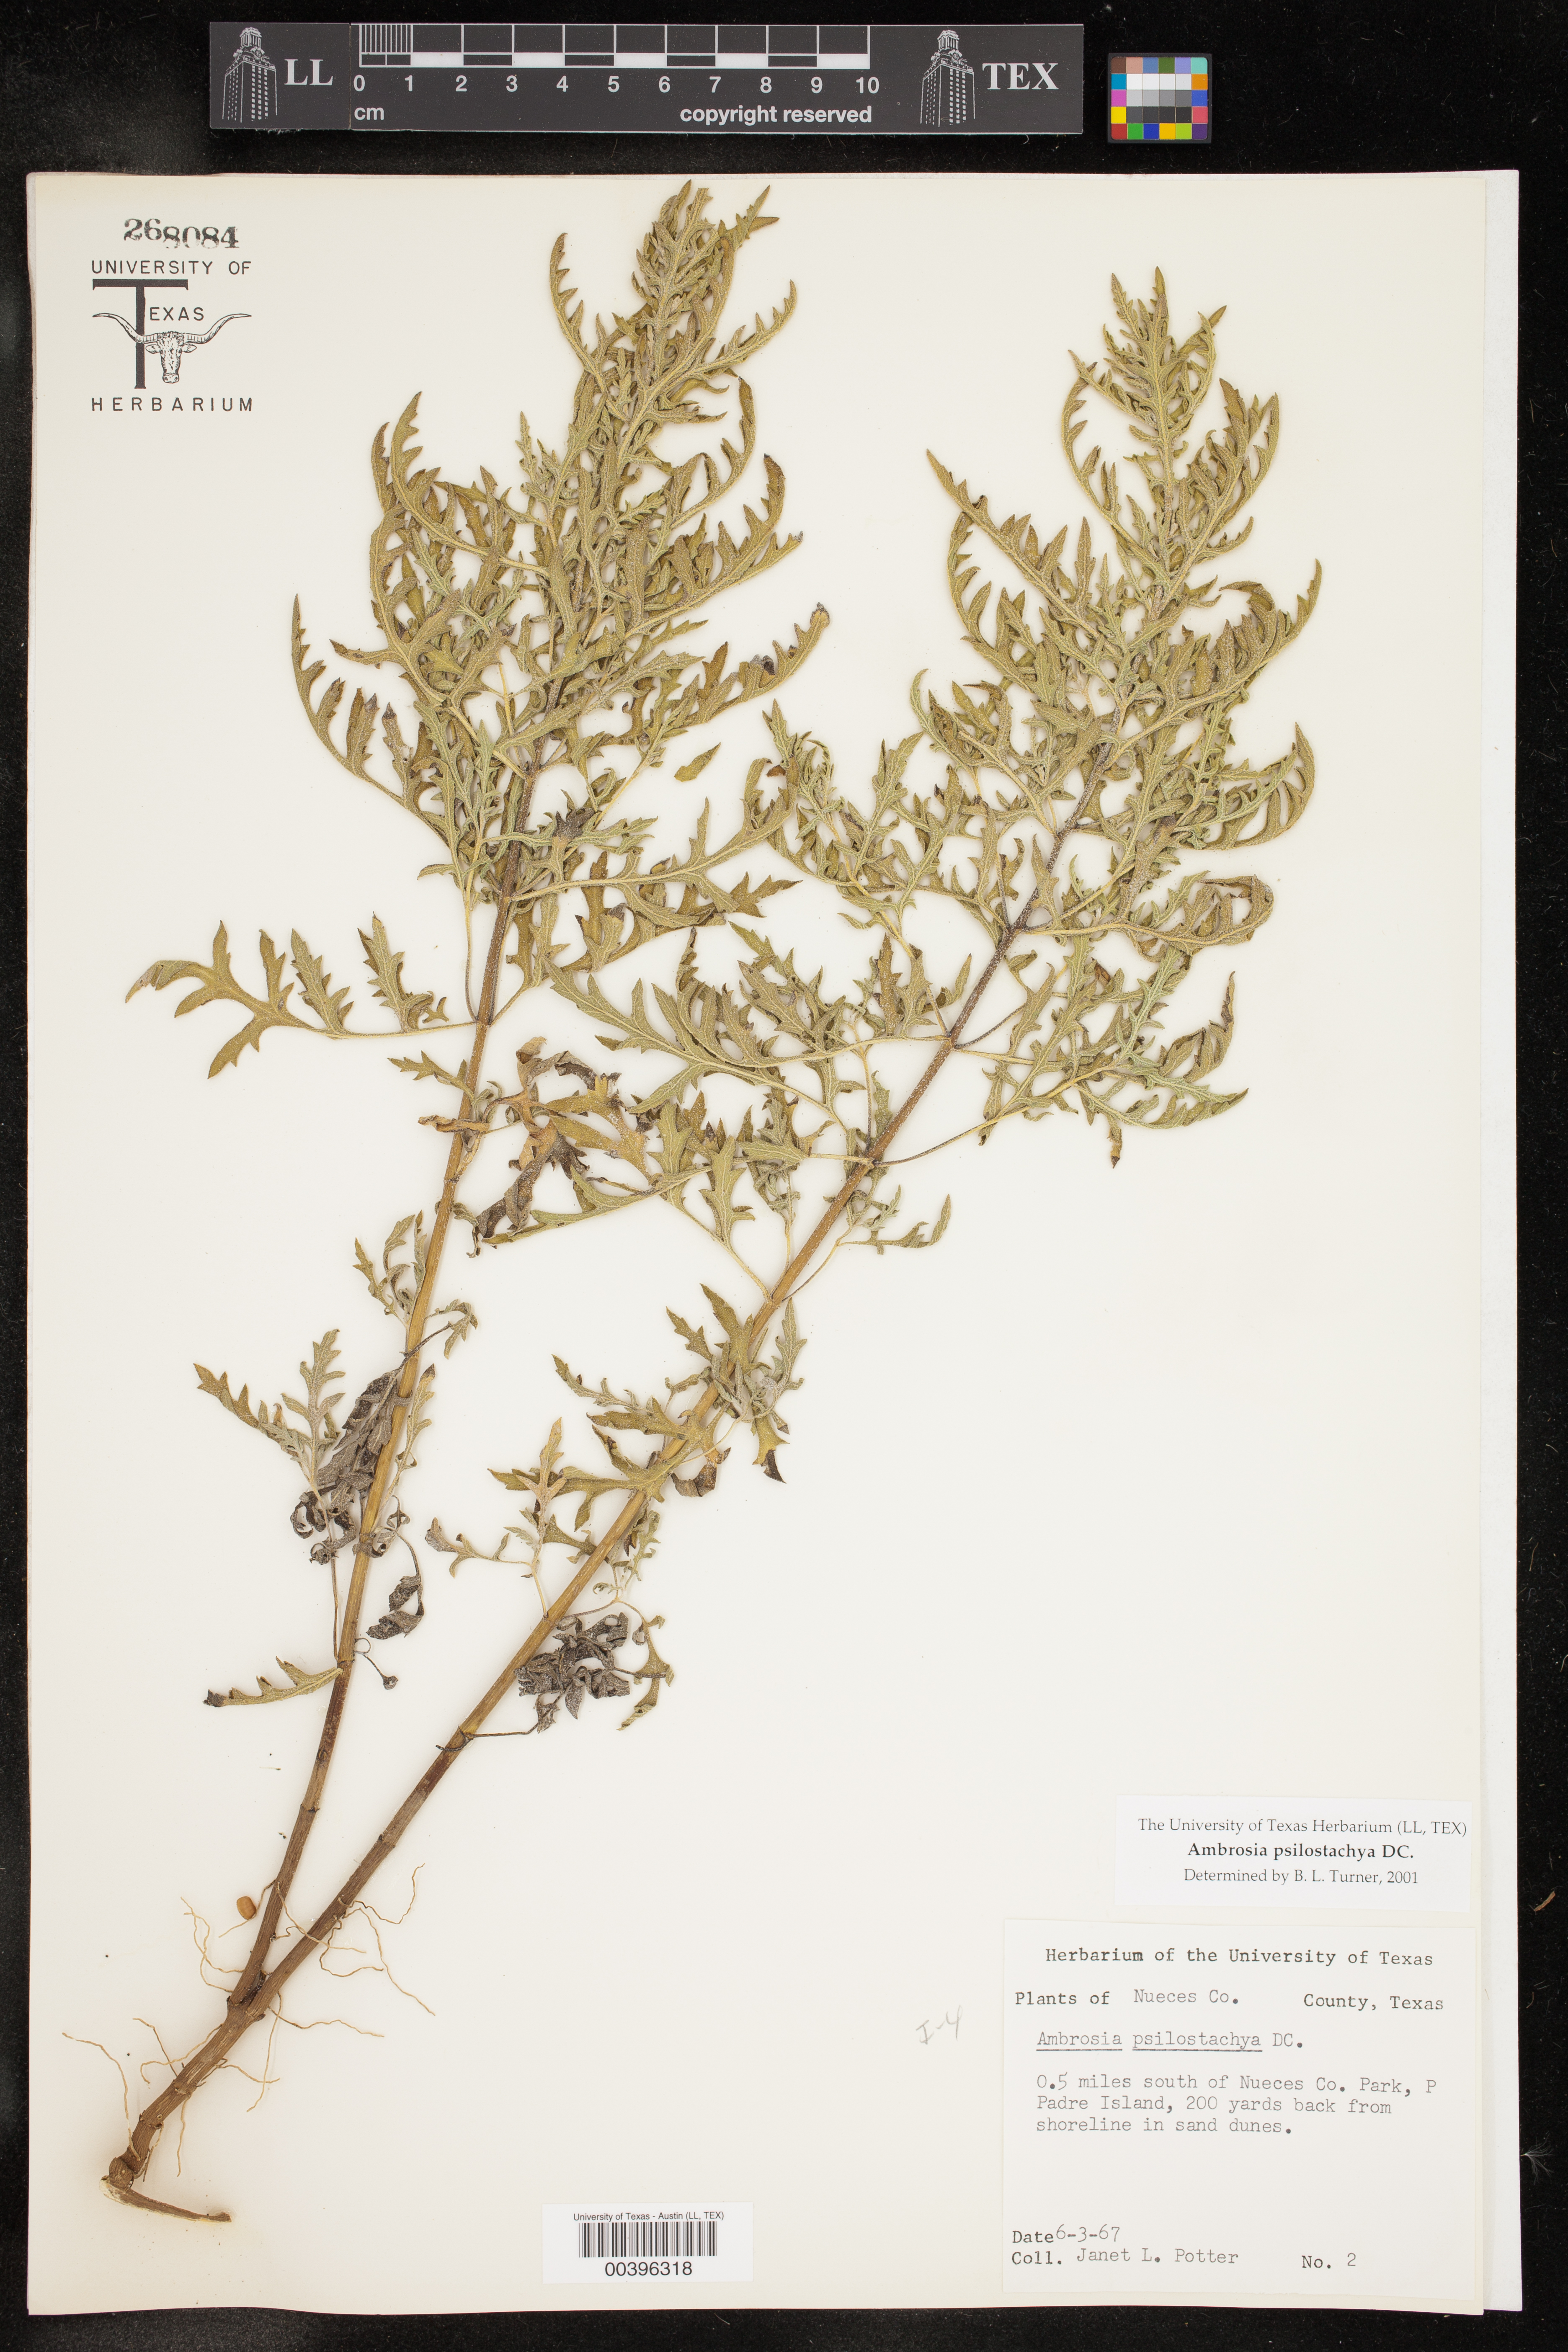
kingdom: Plantae
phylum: Tracheophyta
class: Magnoliopsida
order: Asterales
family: Asteraceae
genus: Ambrosia
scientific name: Ambrosia psilostachya
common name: Perennial ragweed
